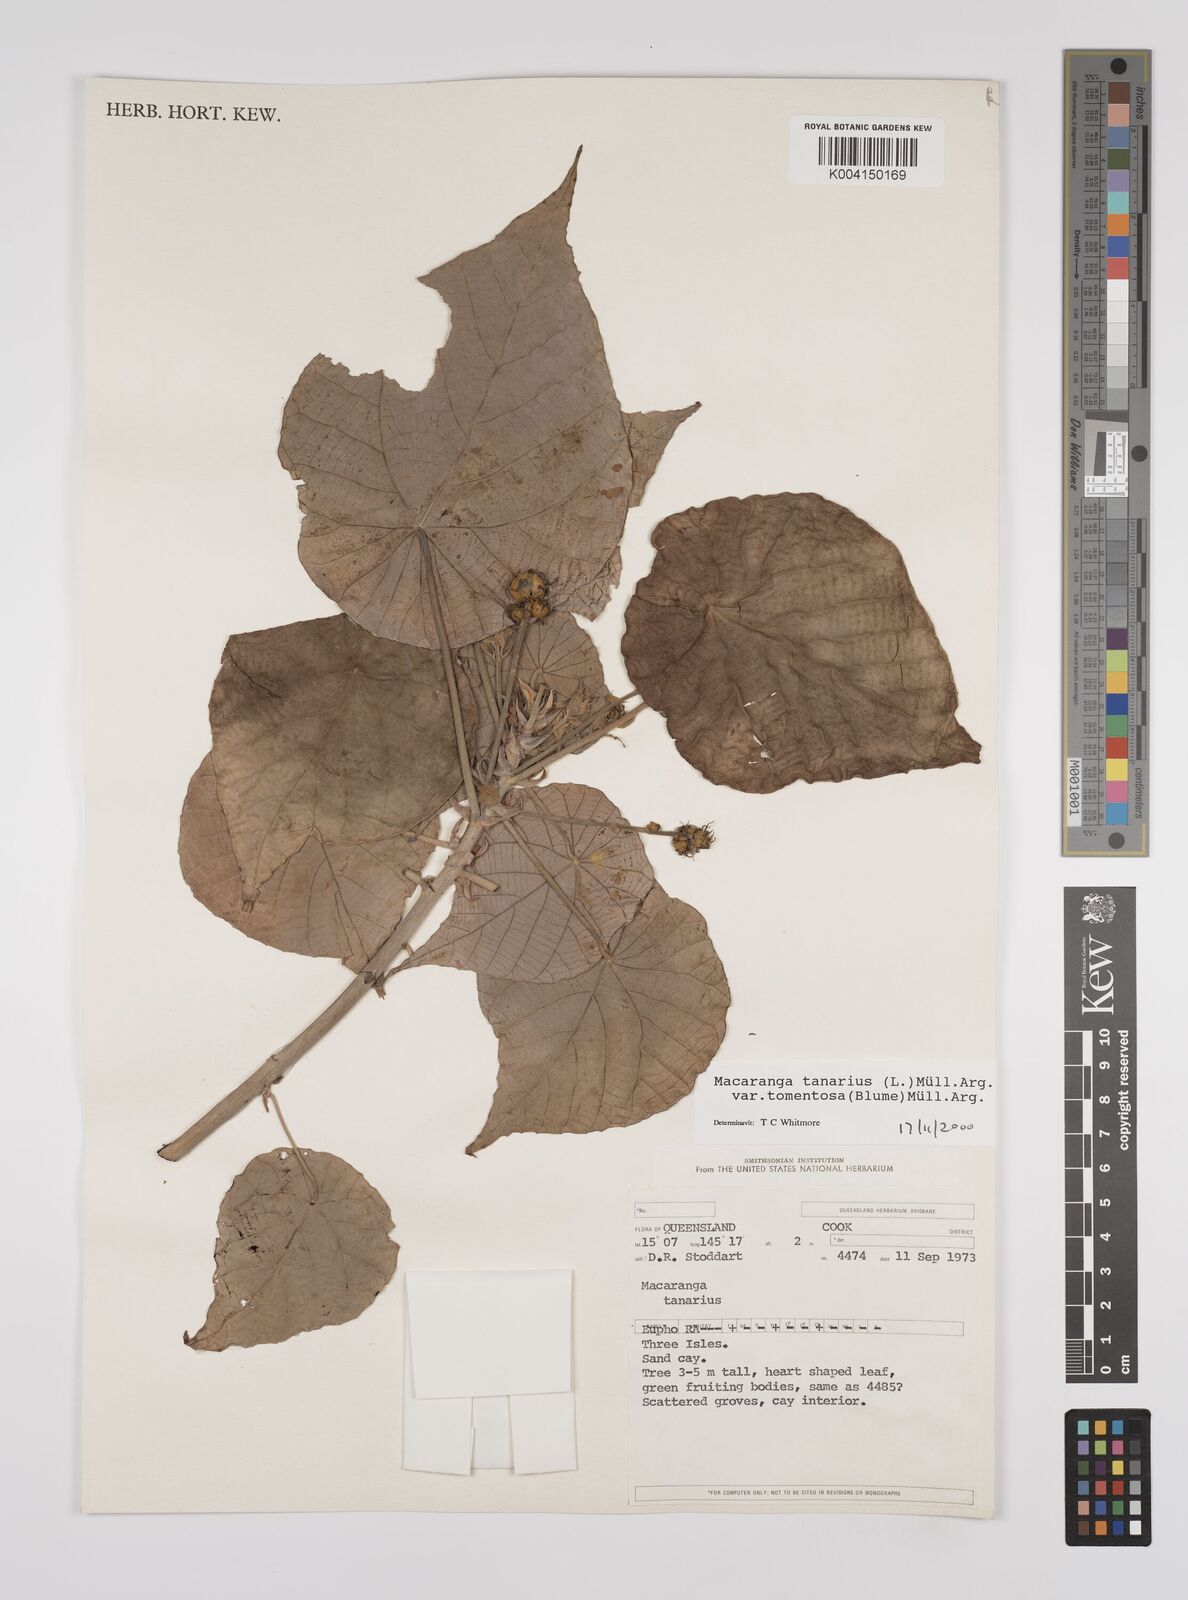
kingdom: Plantae
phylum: Tracheophyta
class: Magnoliopsida
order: Malpighiales
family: Euphorbiaceae
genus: Macaranga
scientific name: Macaranga tanarius
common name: Parasol leaf tree
